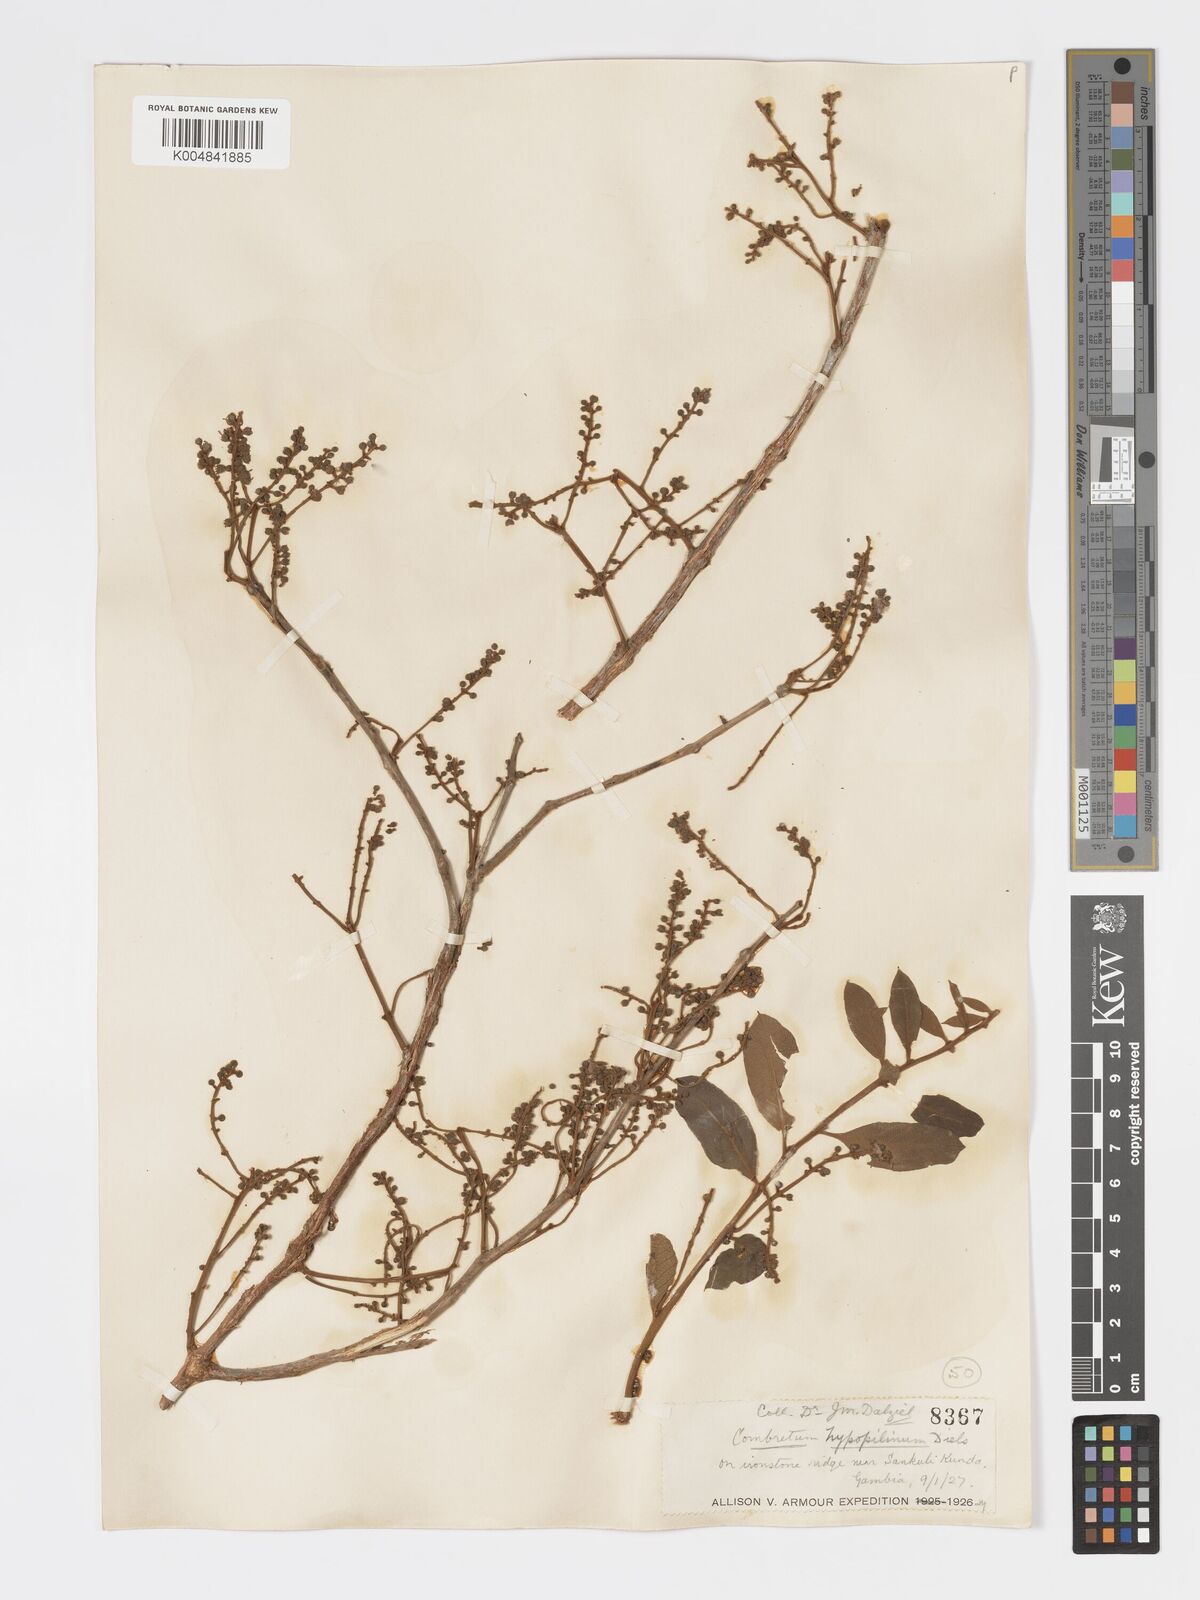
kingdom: Plantae
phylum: Tracheophyta
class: Magnoliopsida
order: Myrtales
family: Combretaceae
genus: Combretum
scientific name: Combretum
